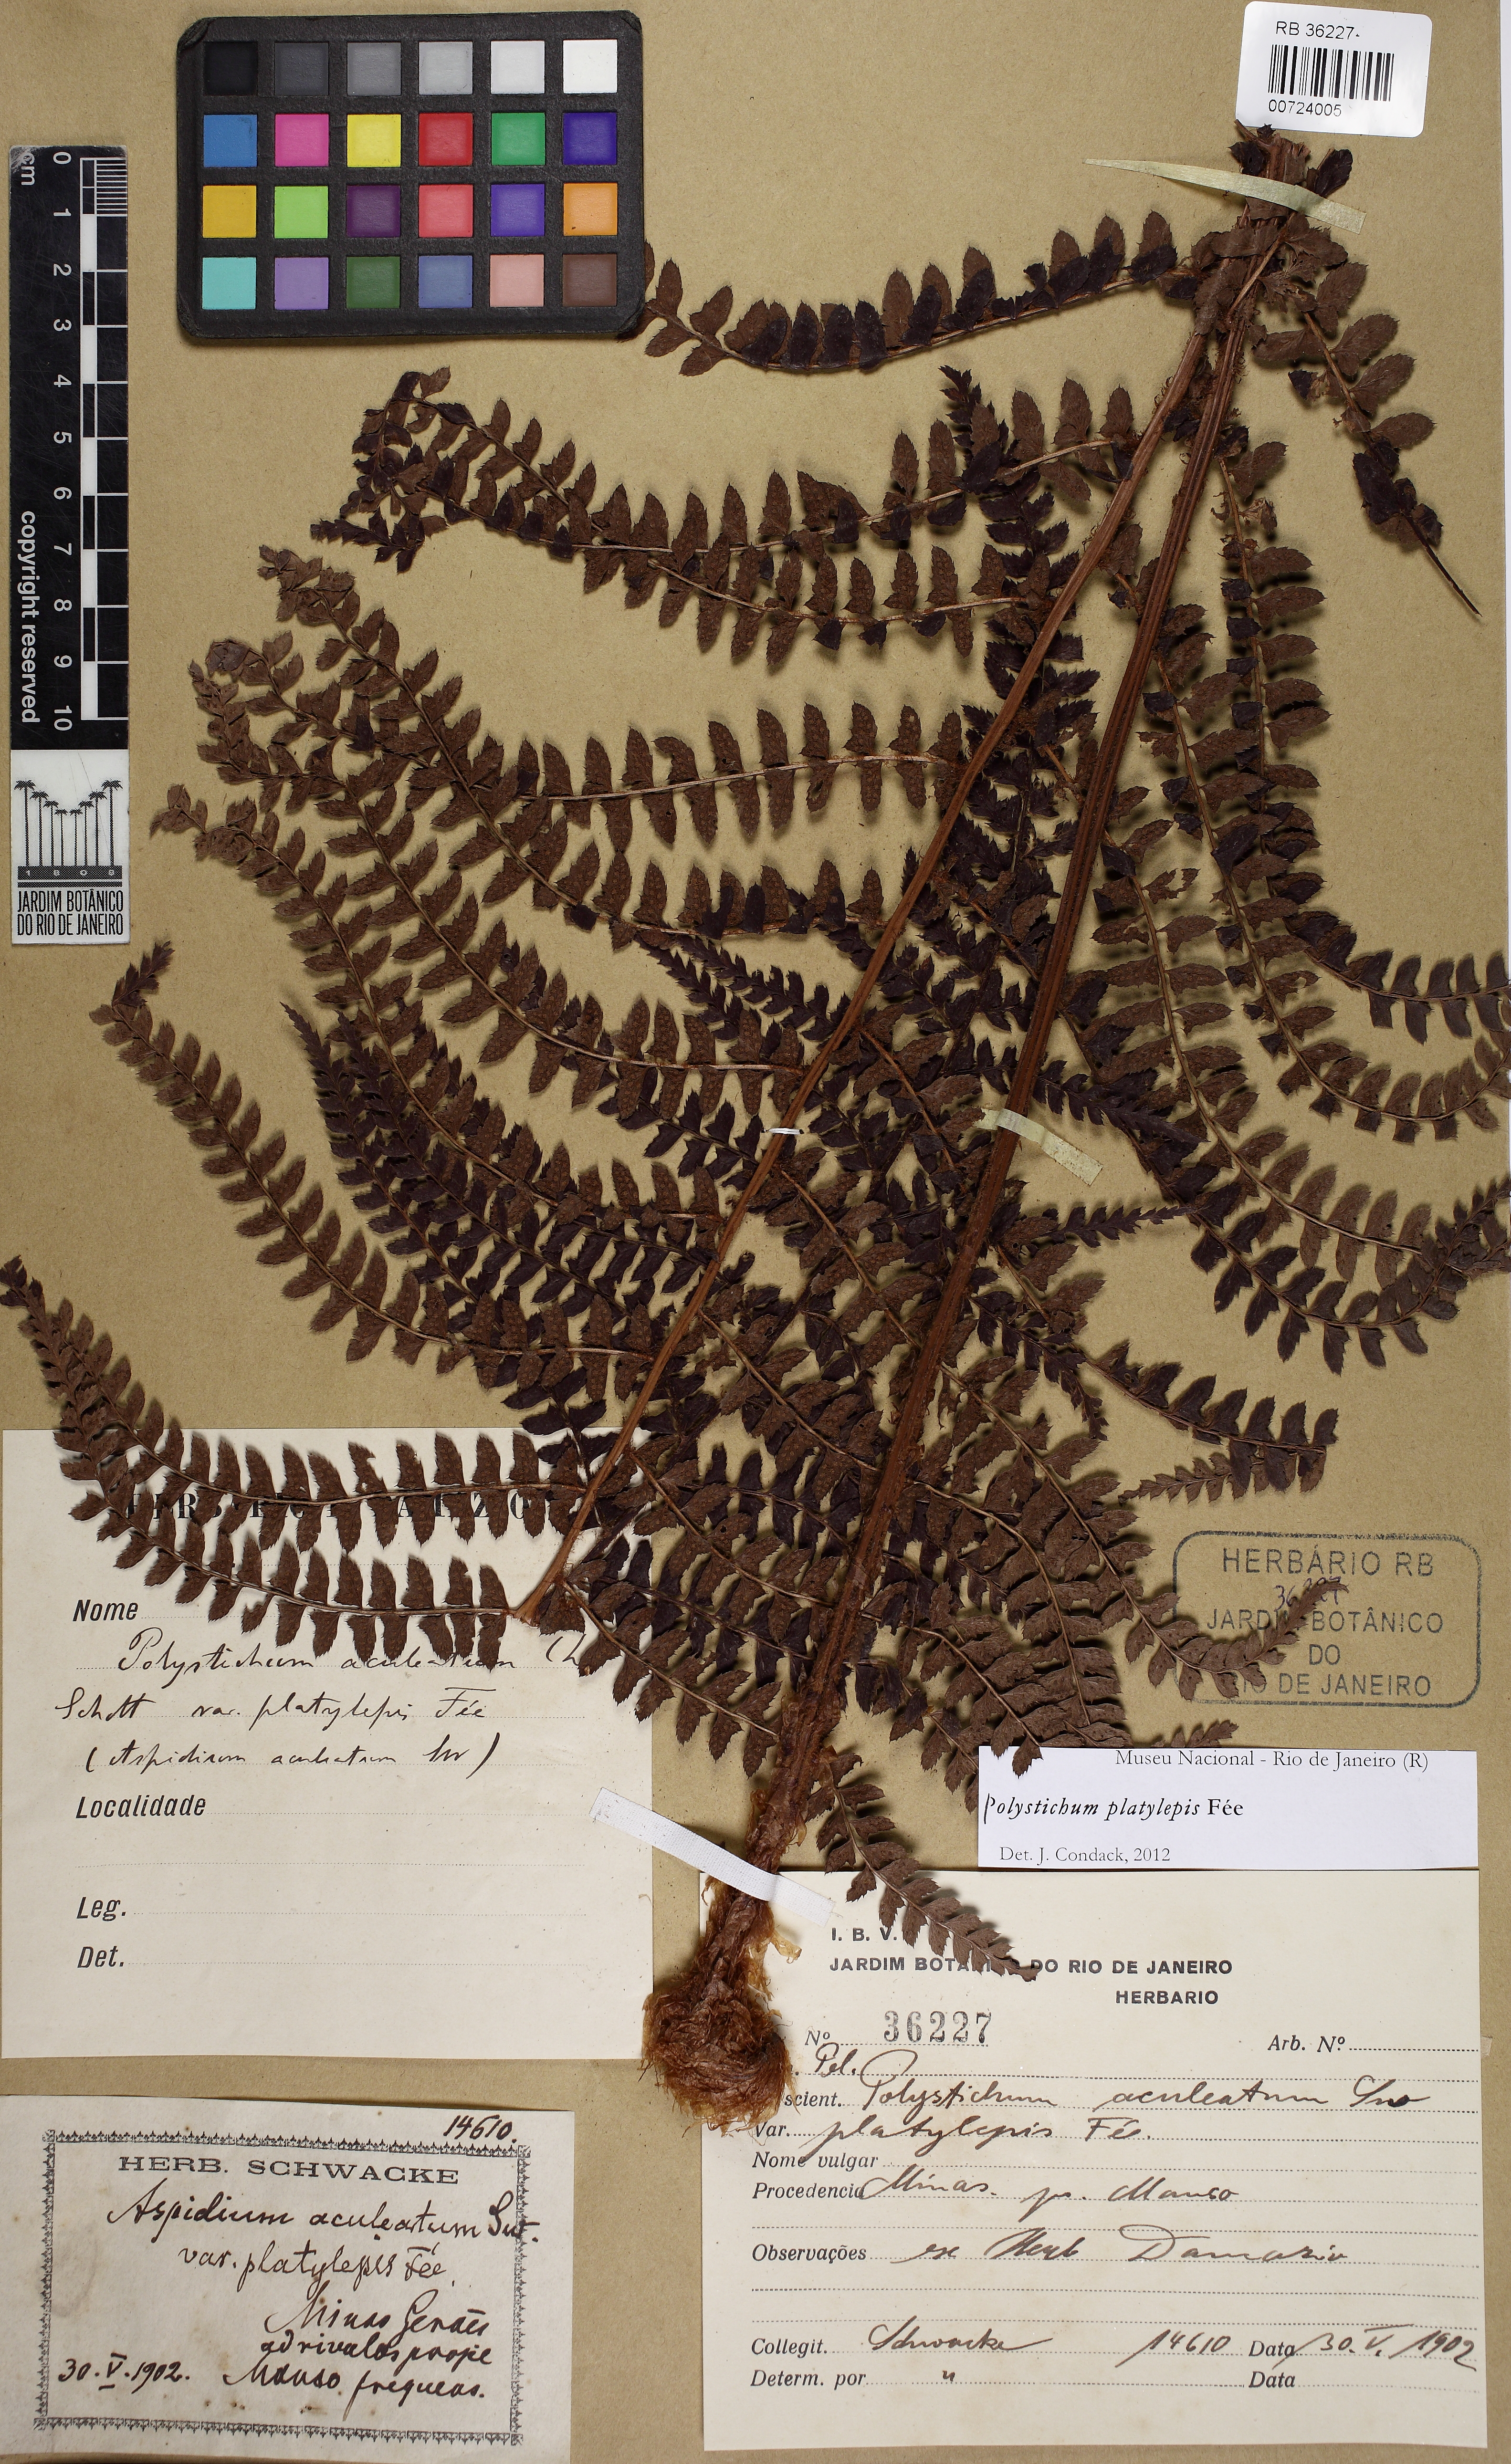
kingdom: Plantae
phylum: Tracheophyta
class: Polypodiopsida
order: Polypodiales
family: Dryopteridaceae
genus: Polystichum
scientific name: Polystichum platylepis
